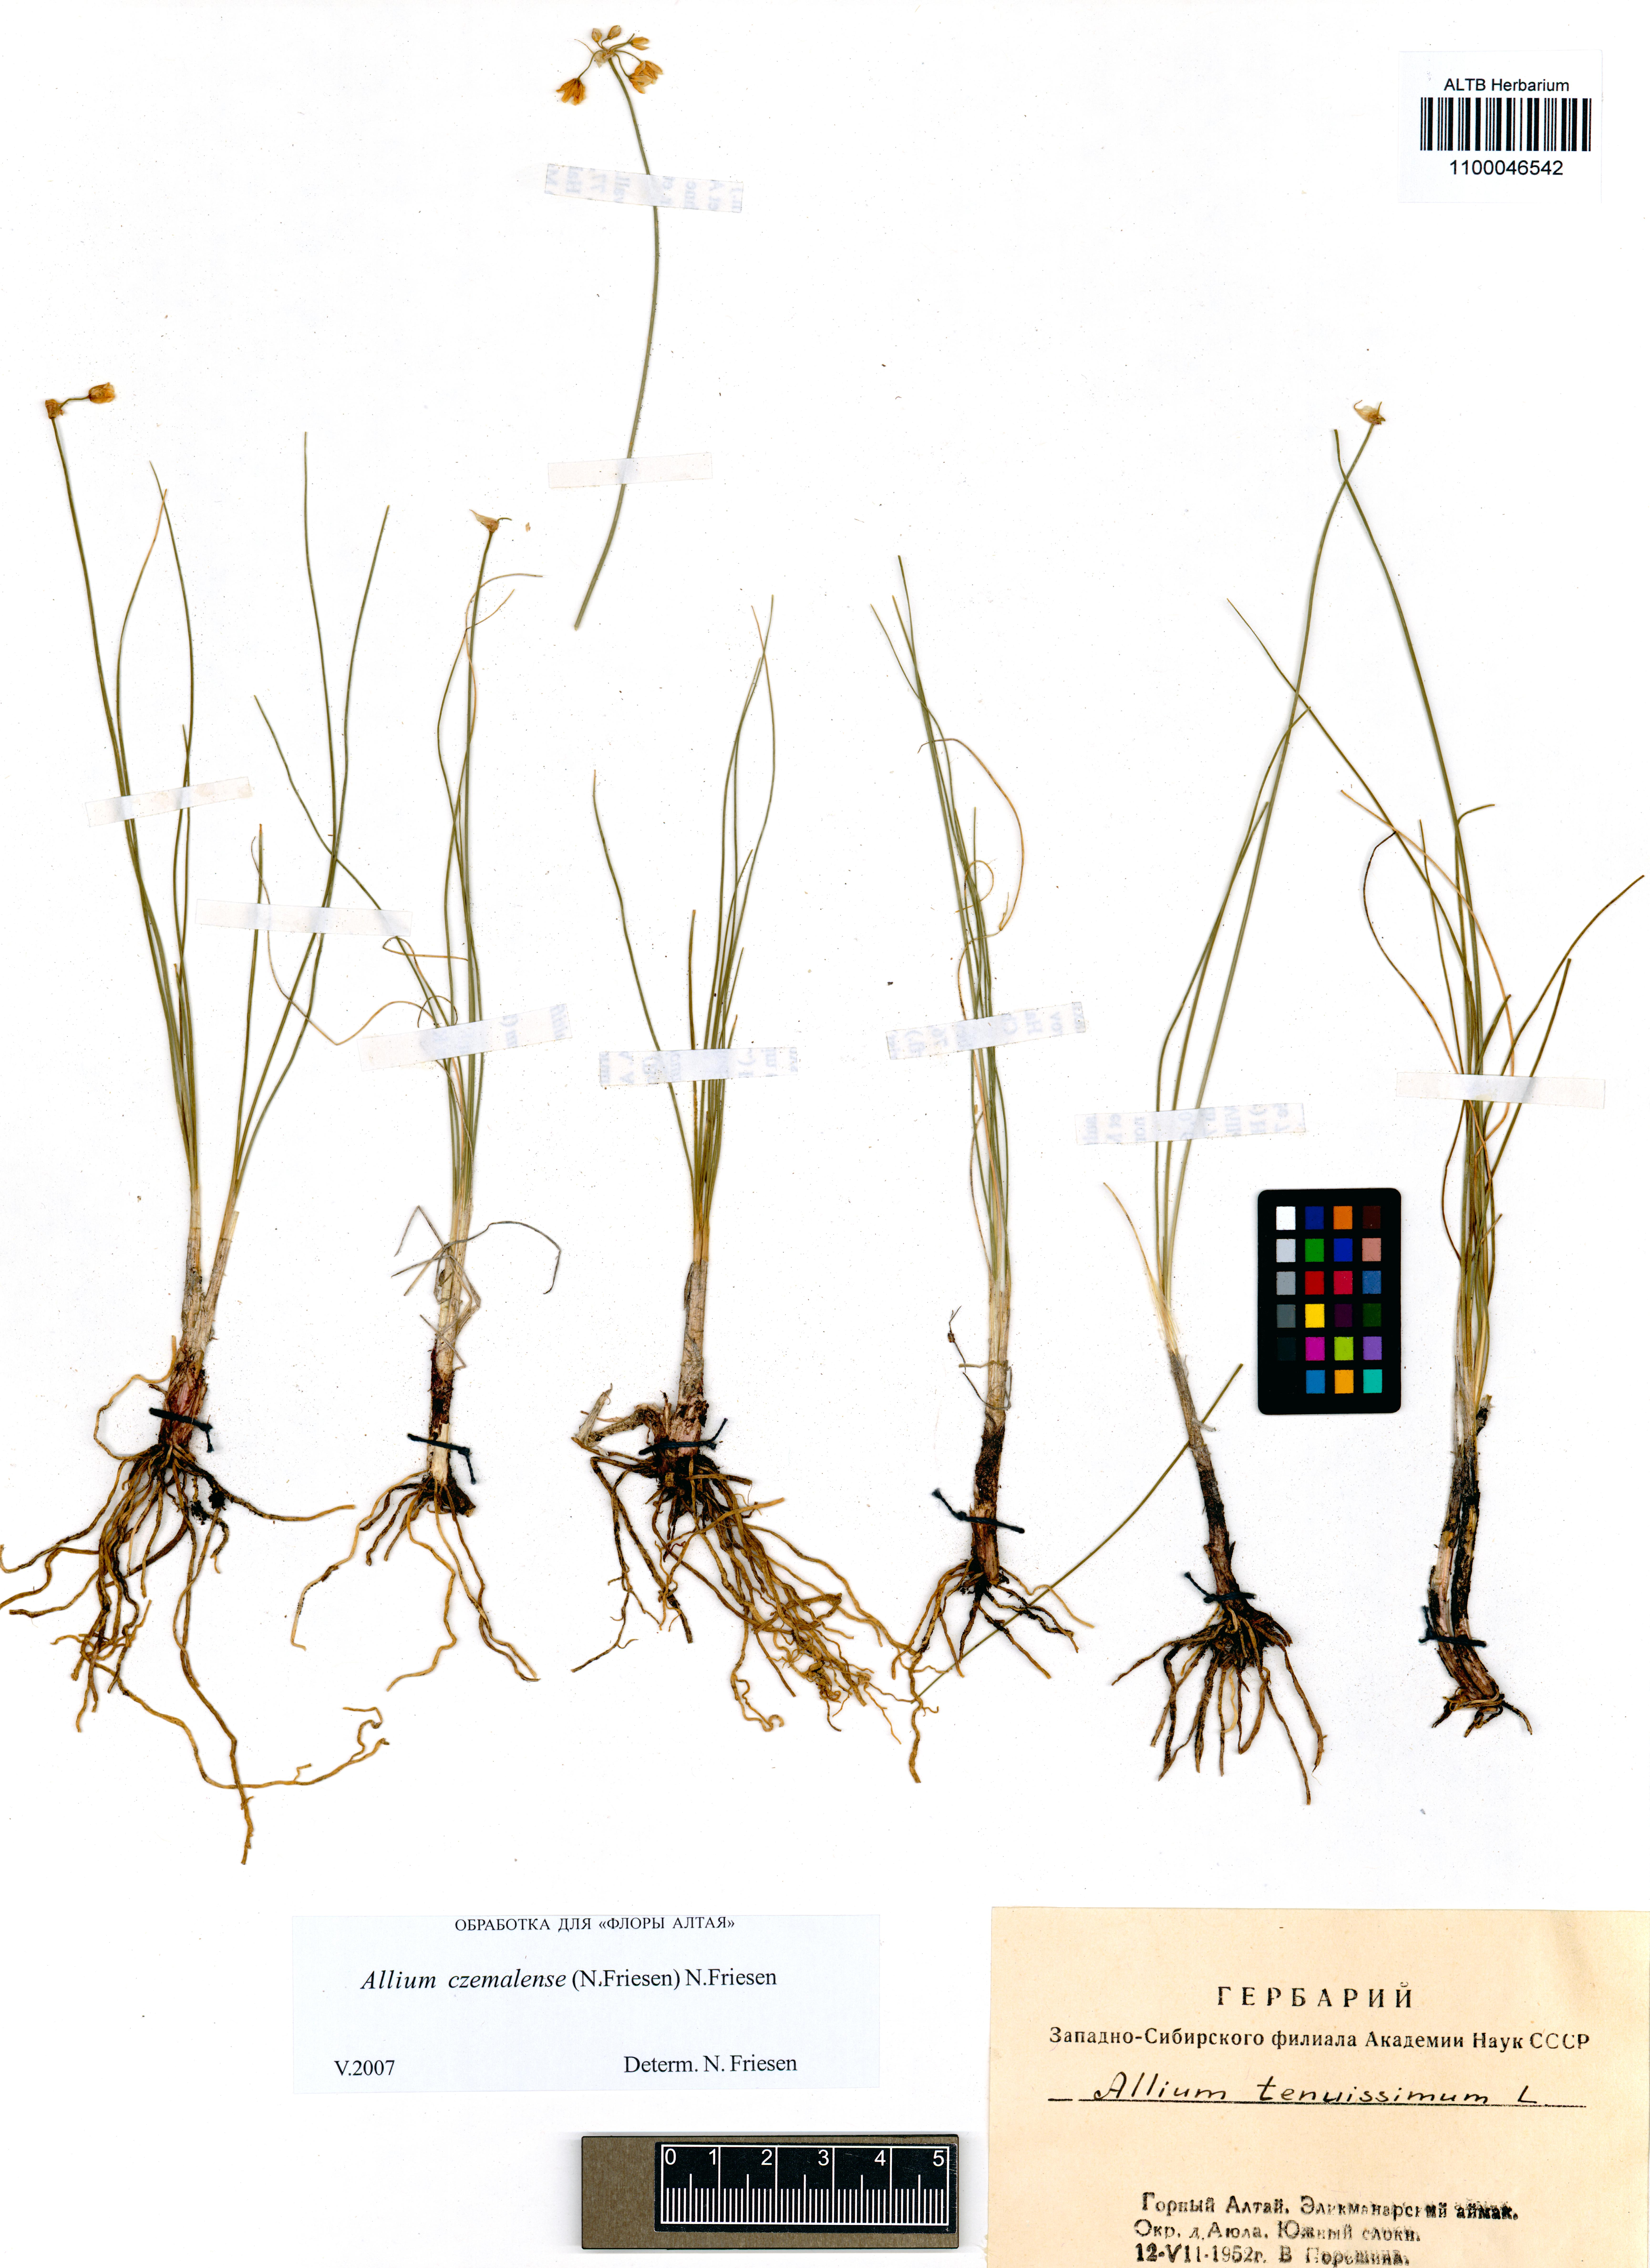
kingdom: Plantae
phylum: Tracheophyta
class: Liliopsida
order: Asparagales
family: Amaryllidaceae
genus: Allium
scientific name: Allium
